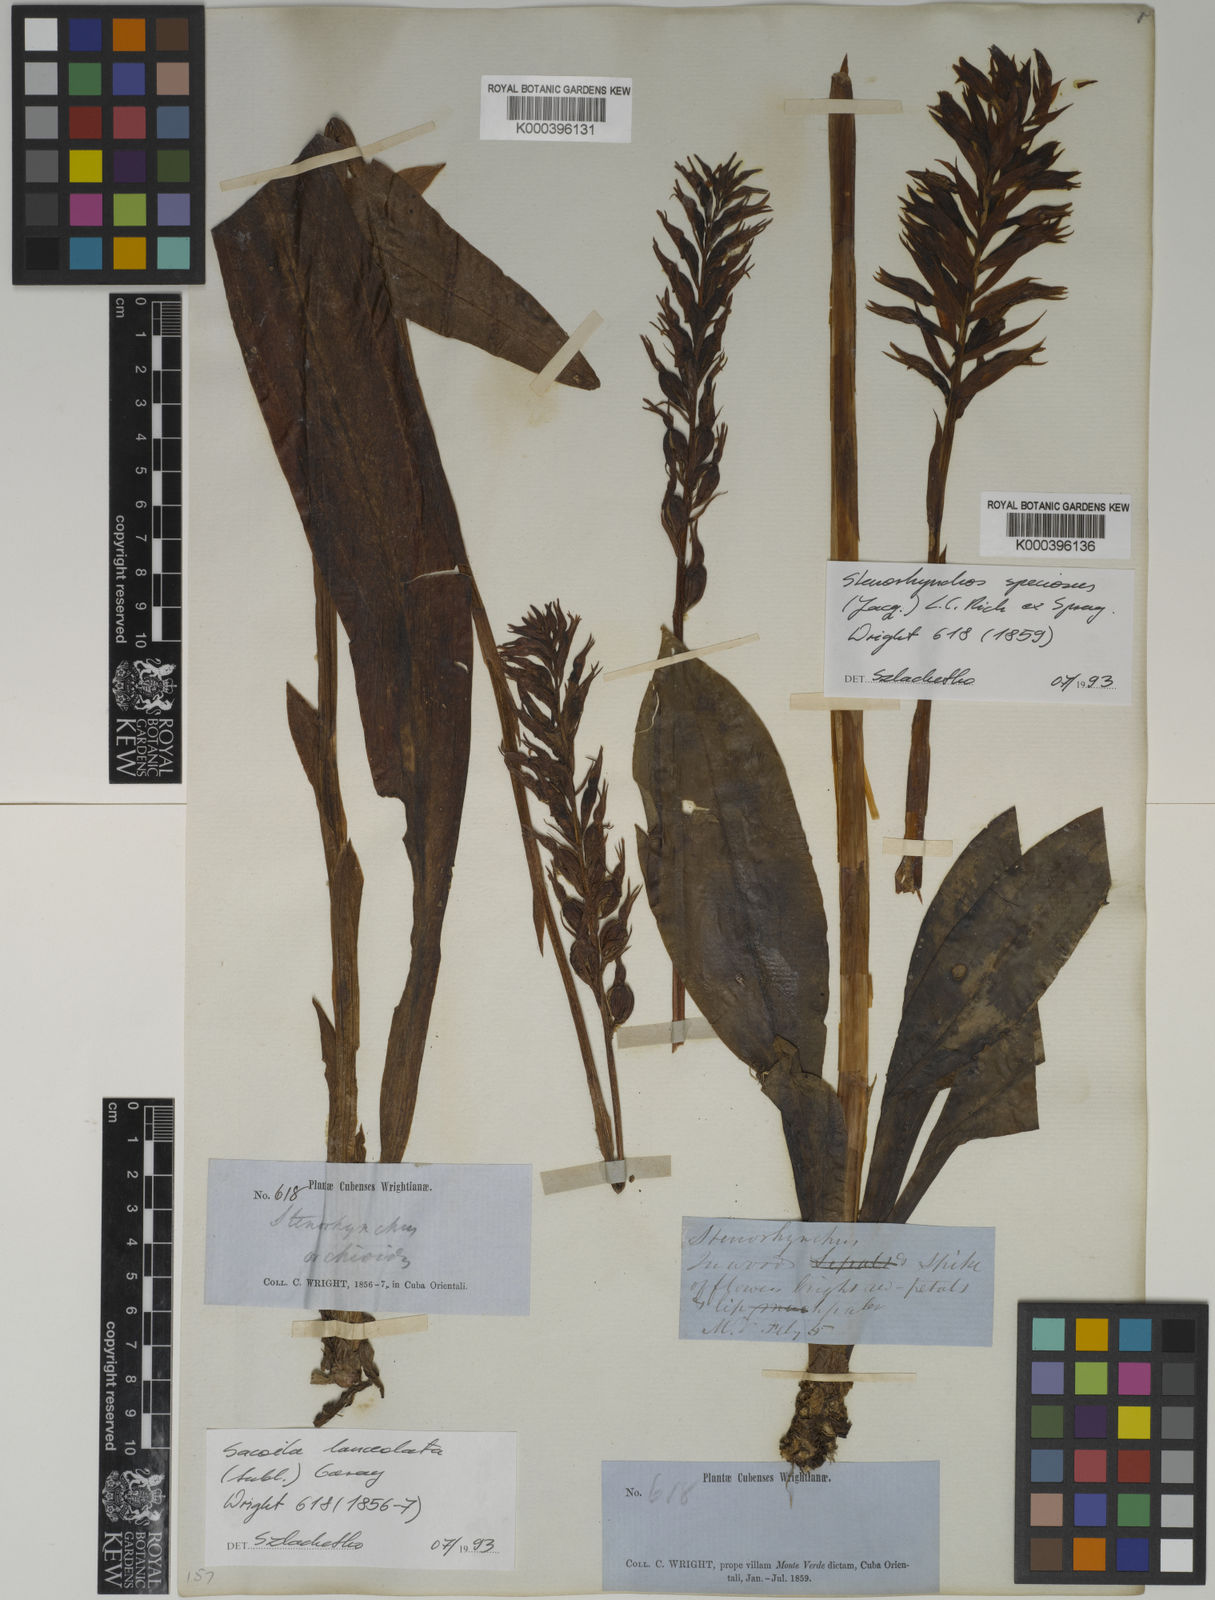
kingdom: Plantae
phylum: Tracheophyta
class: Liliopsida
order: Asparagales
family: Orchidaceae
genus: Stenorrhynchos
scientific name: Stenorrhynchos speciosum
